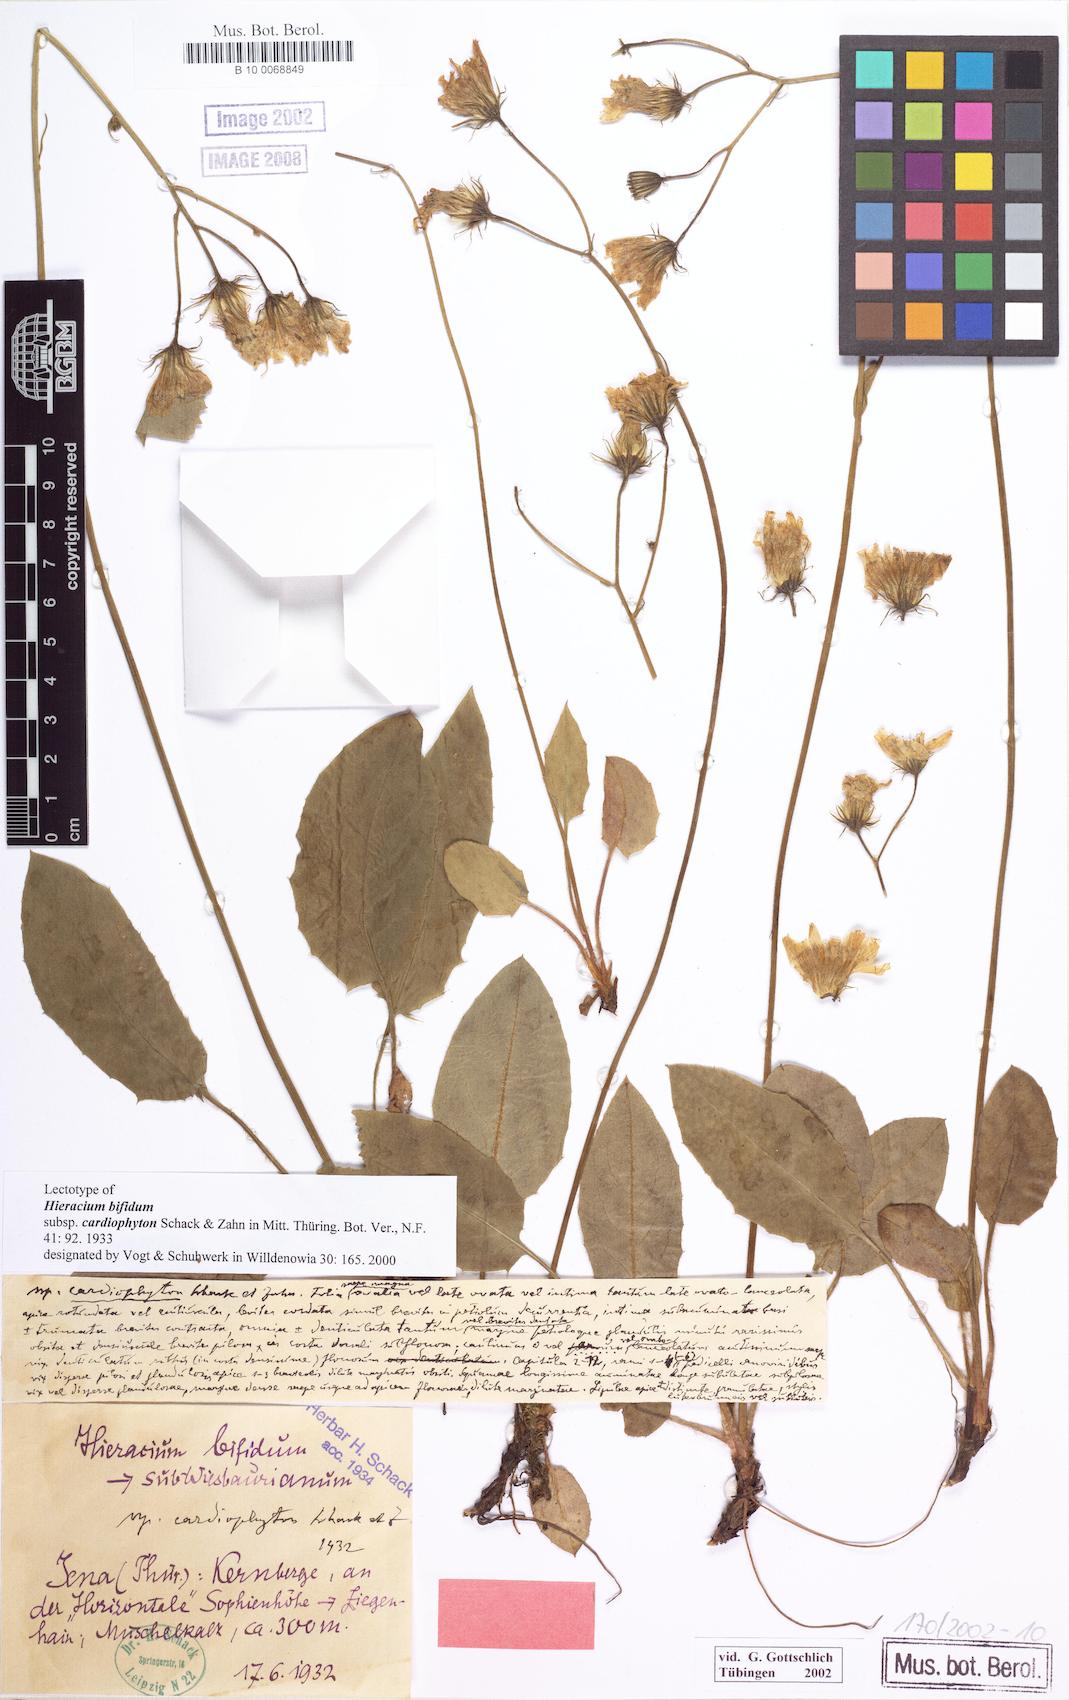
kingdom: Plantae
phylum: Tracheophyta
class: Magnoliopsida
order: Asterales
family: Asteraceae
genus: Hieracium
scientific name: Hieracium bifidum
